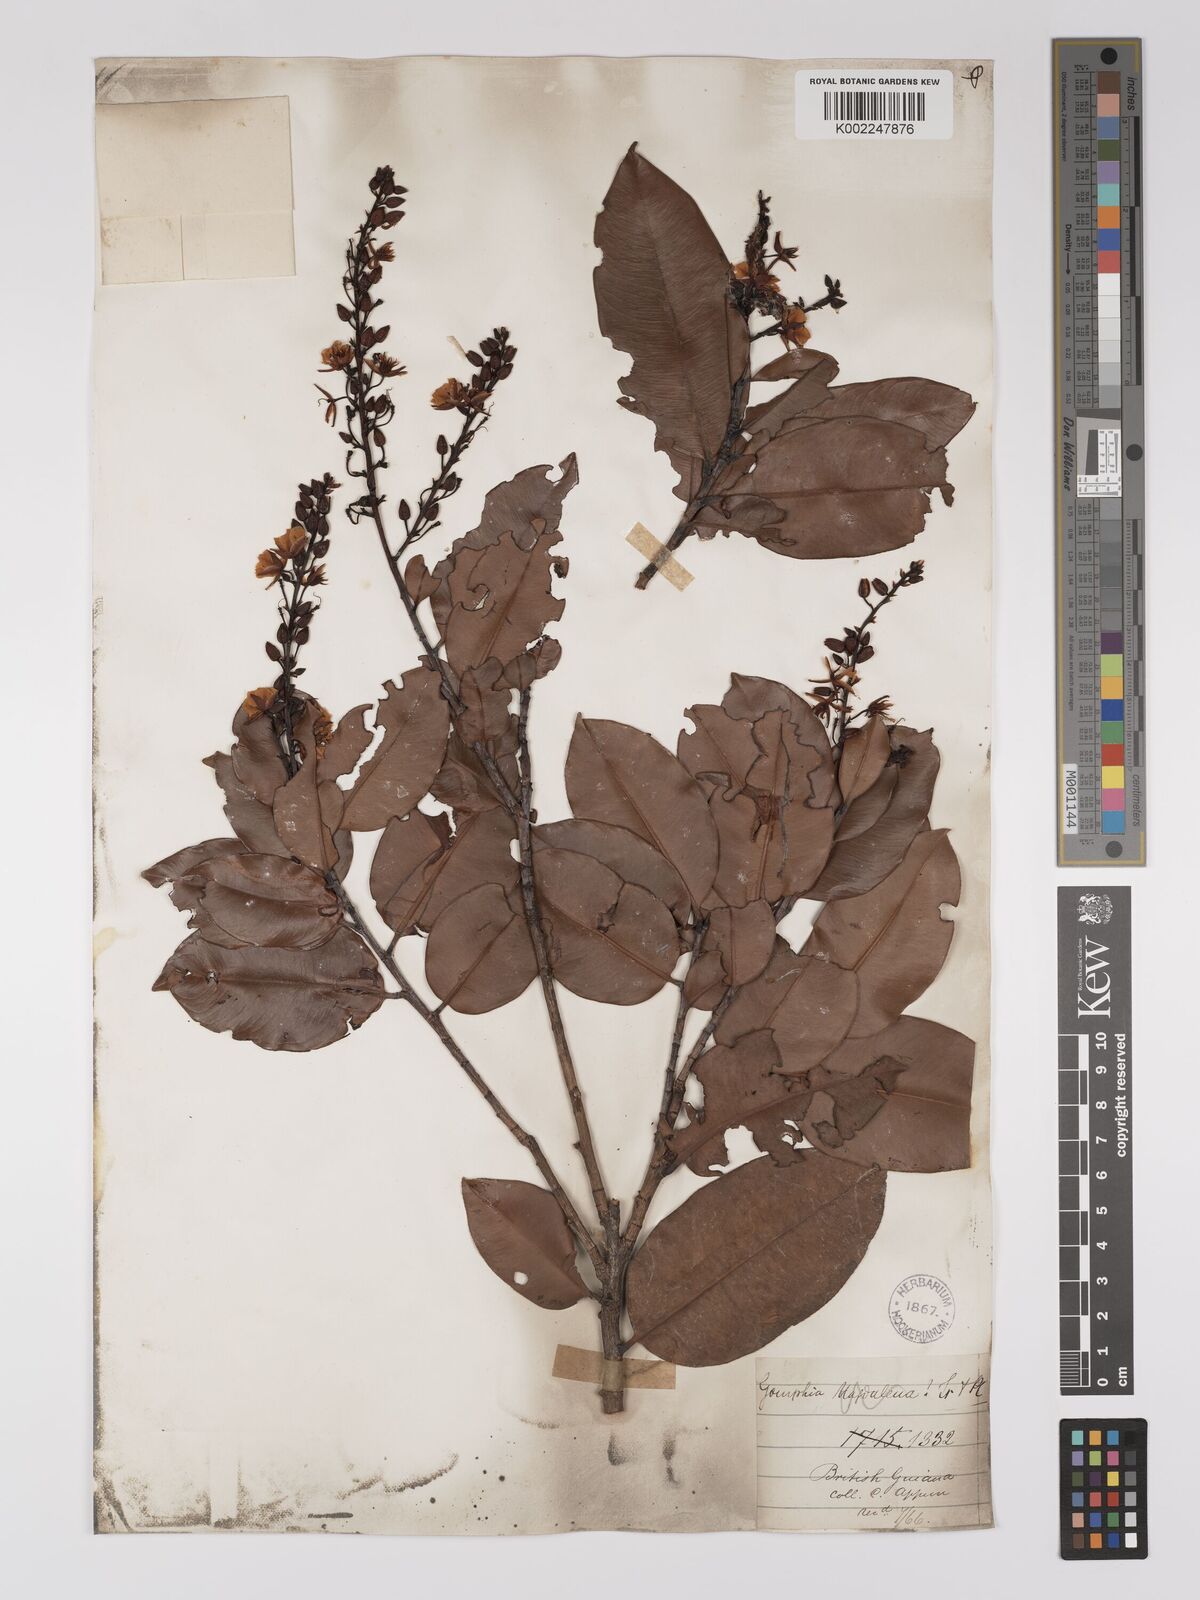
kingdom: Plantae
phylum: Tracheophyta
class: Magnoliopsida
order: Malpighiales
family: Ochnaceae
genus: Ouratea
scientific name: Ouratea
